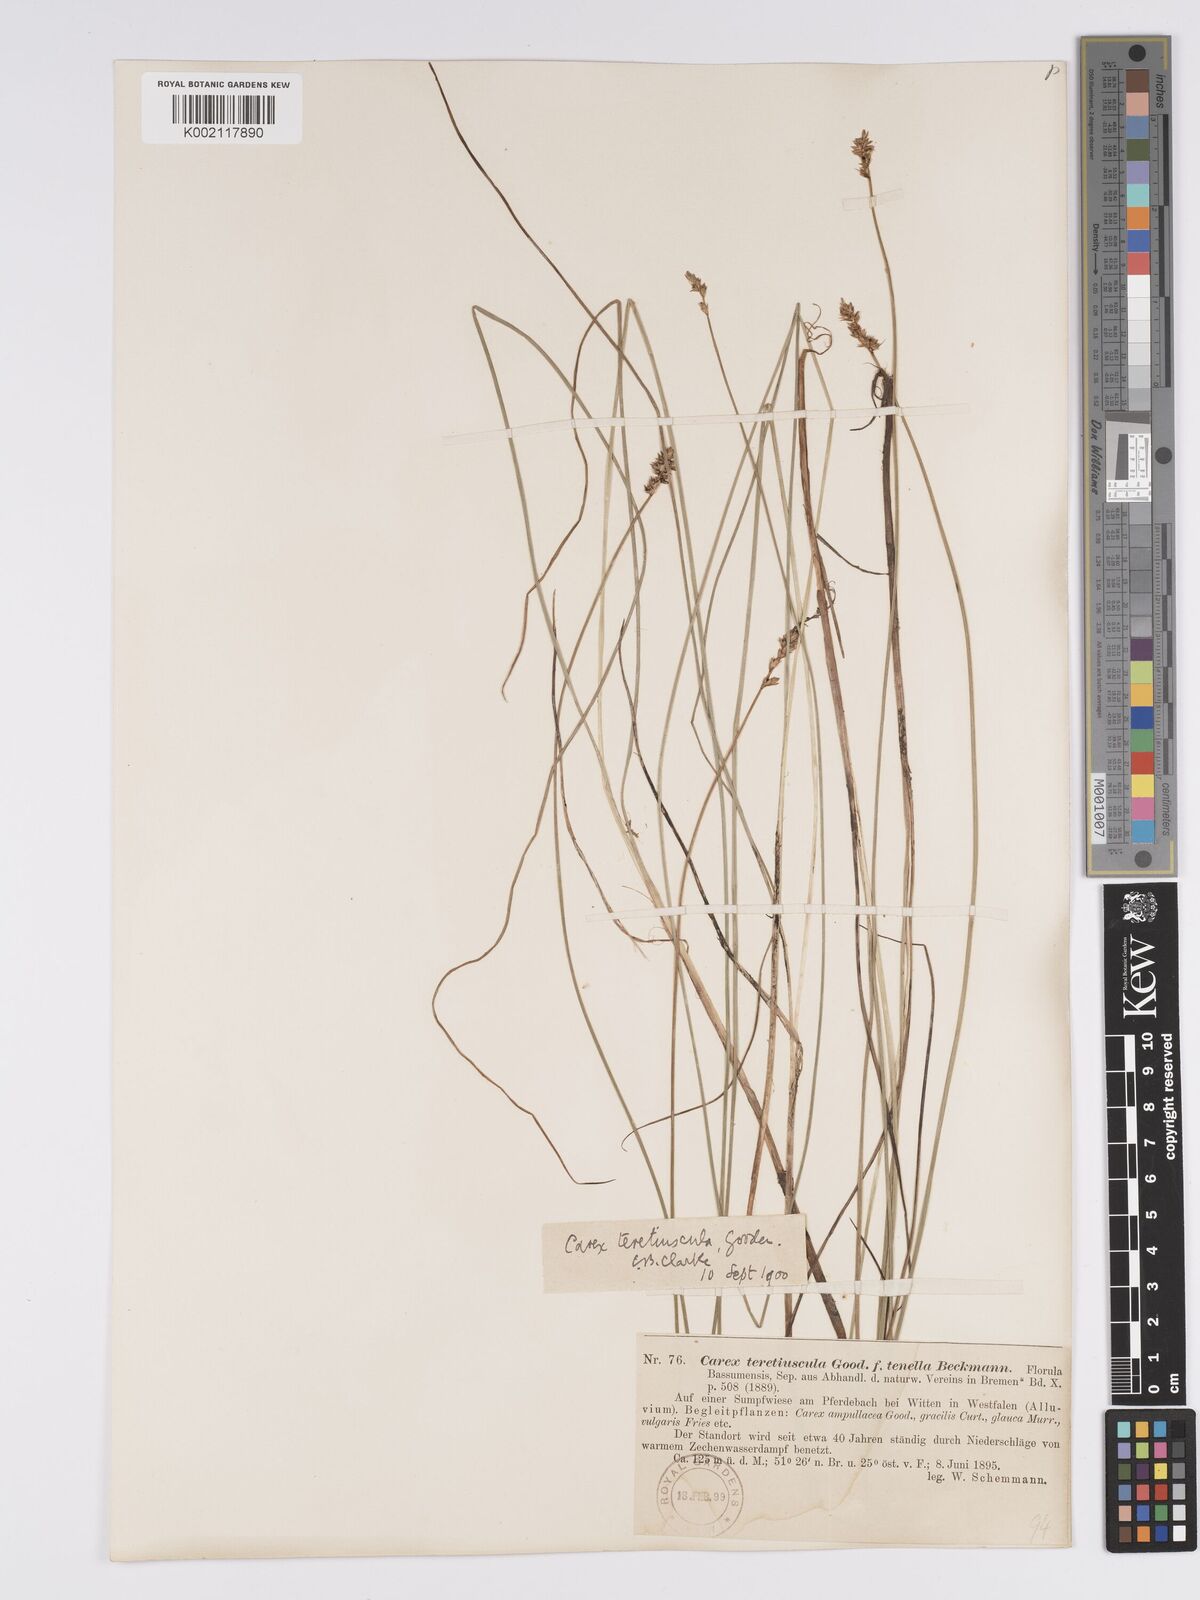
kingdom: Plantae
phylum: Tracheophyta
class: Liliopsida
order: Poales
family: Cyperaceae
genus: Carex
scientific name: Carex diandra
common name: Lesser tussock-sedge
